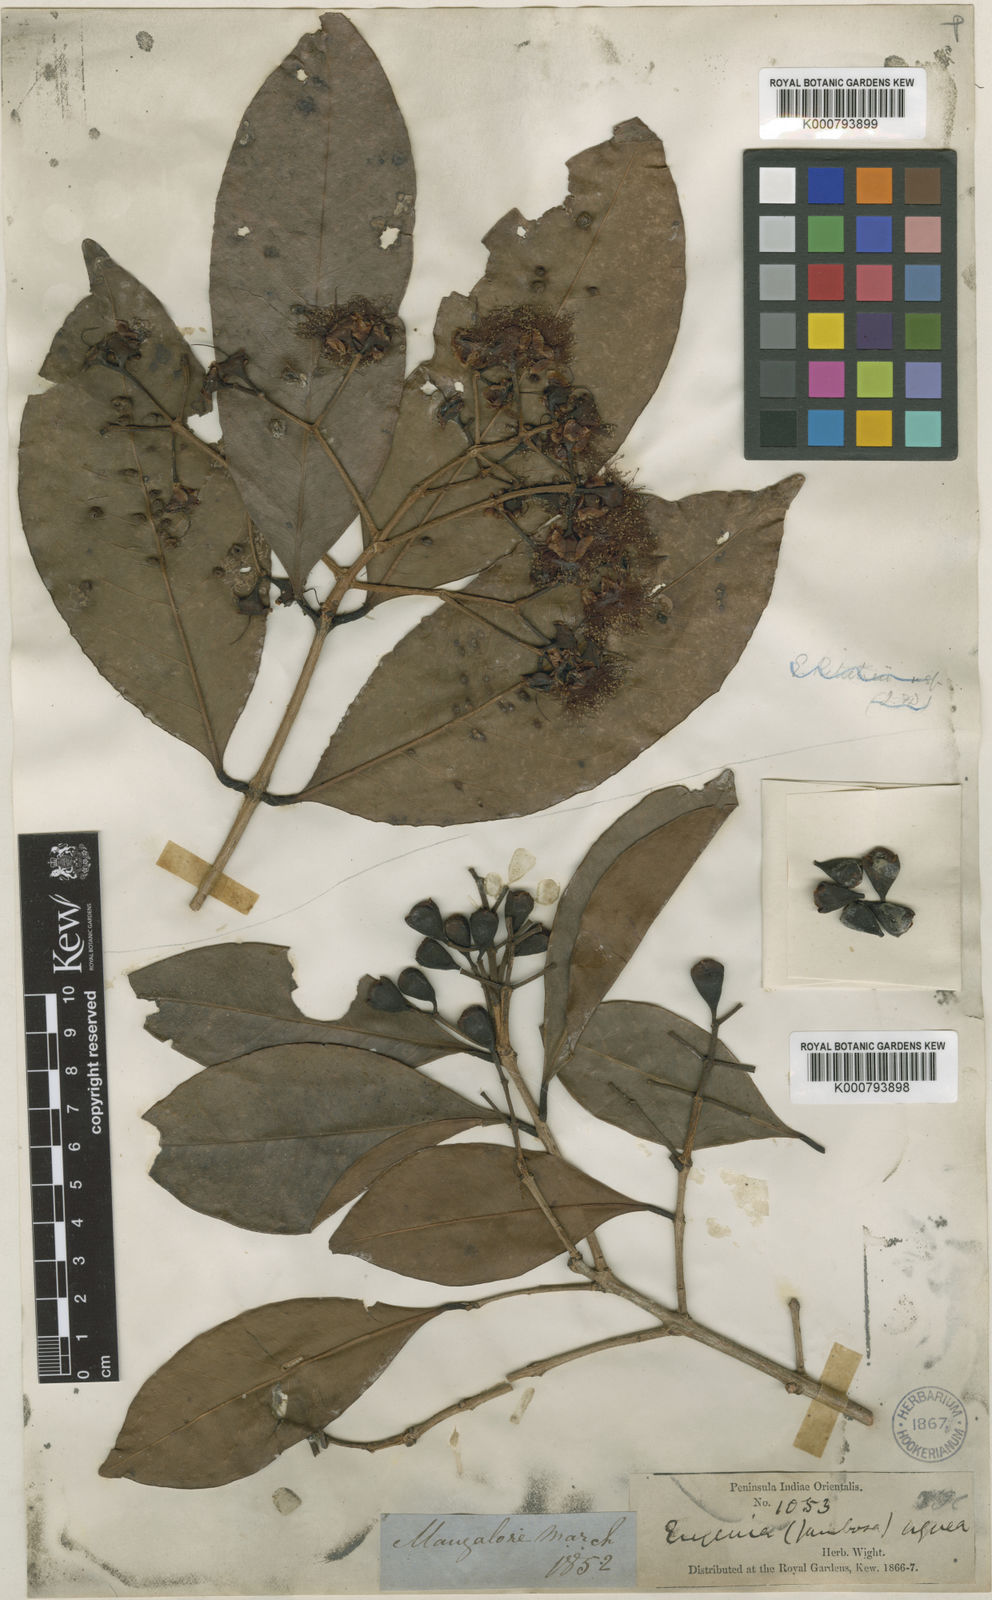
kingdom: Plantae
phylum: Tracheophyta
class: Magnoliopsida
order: Myrtales
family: Myrtaceae
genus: Syzygium
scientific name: Syzygium hemisphericum
